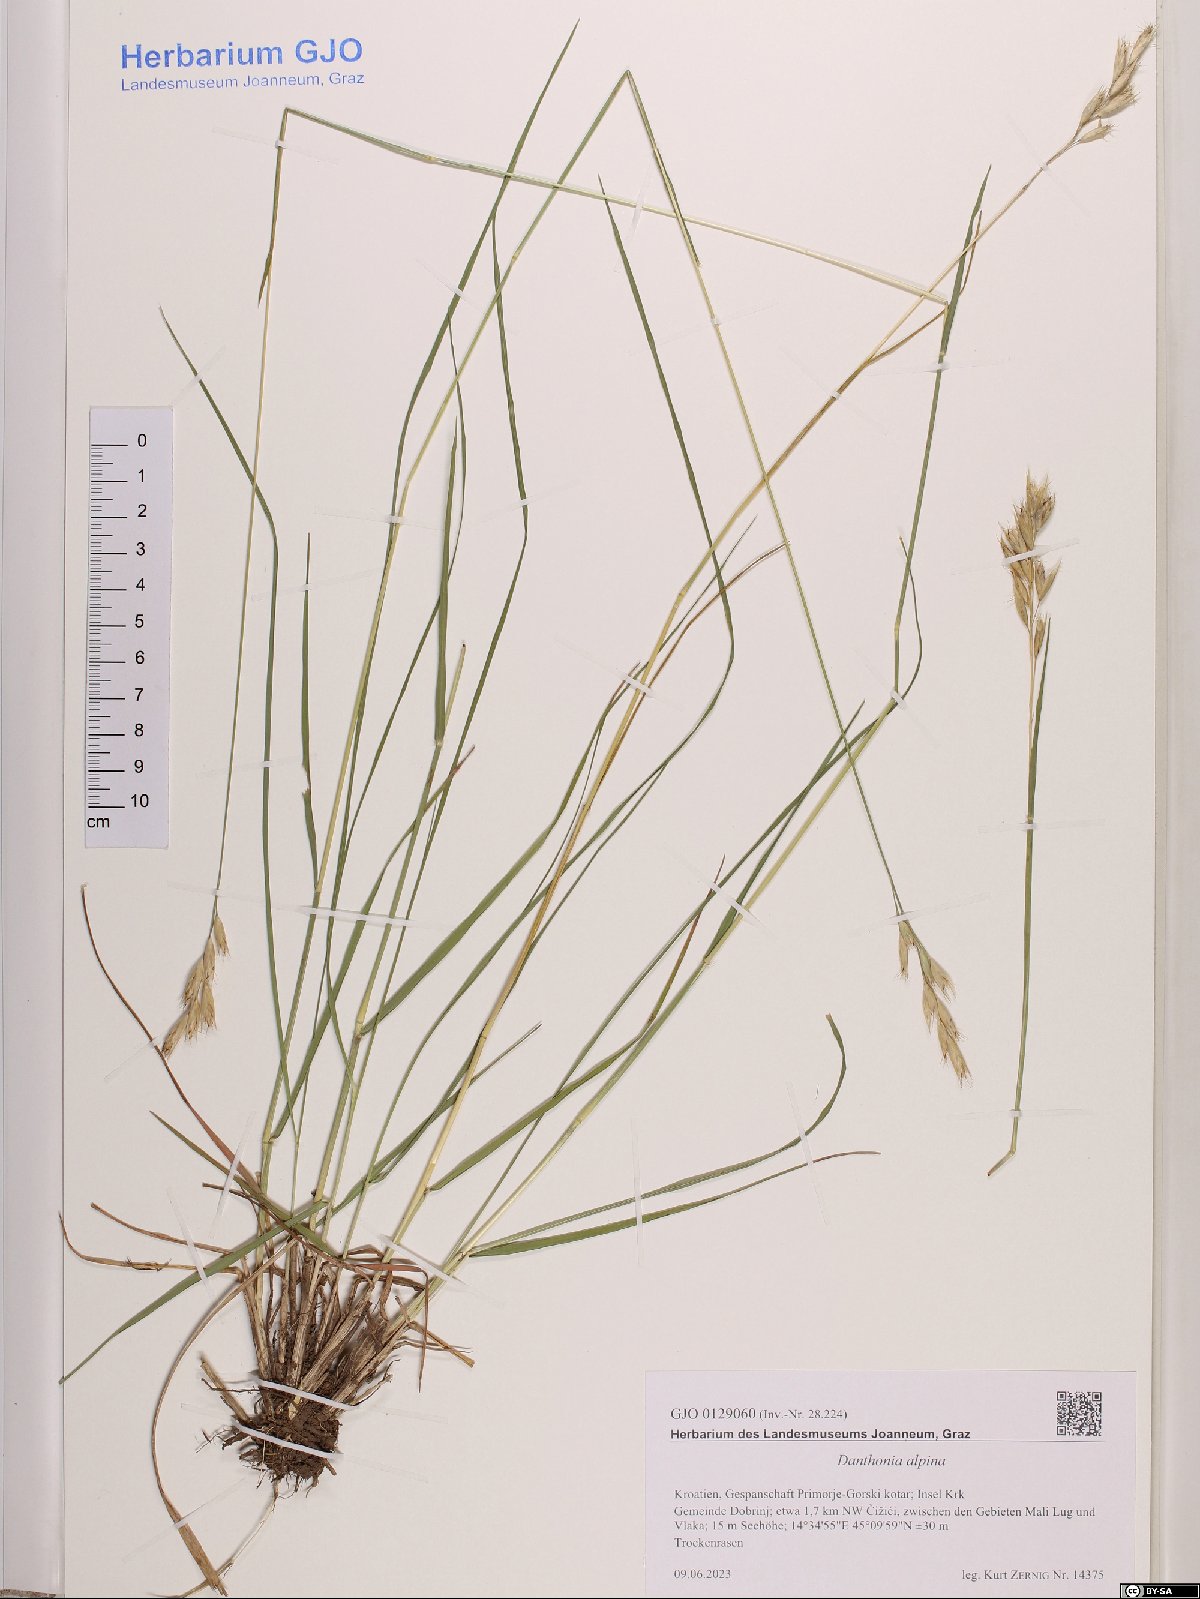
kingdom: Plantae
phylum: Tracheophyta
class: Liliopsida
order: Poales
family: Poaceae
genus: Danthonia
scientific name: Danthonia alpina
